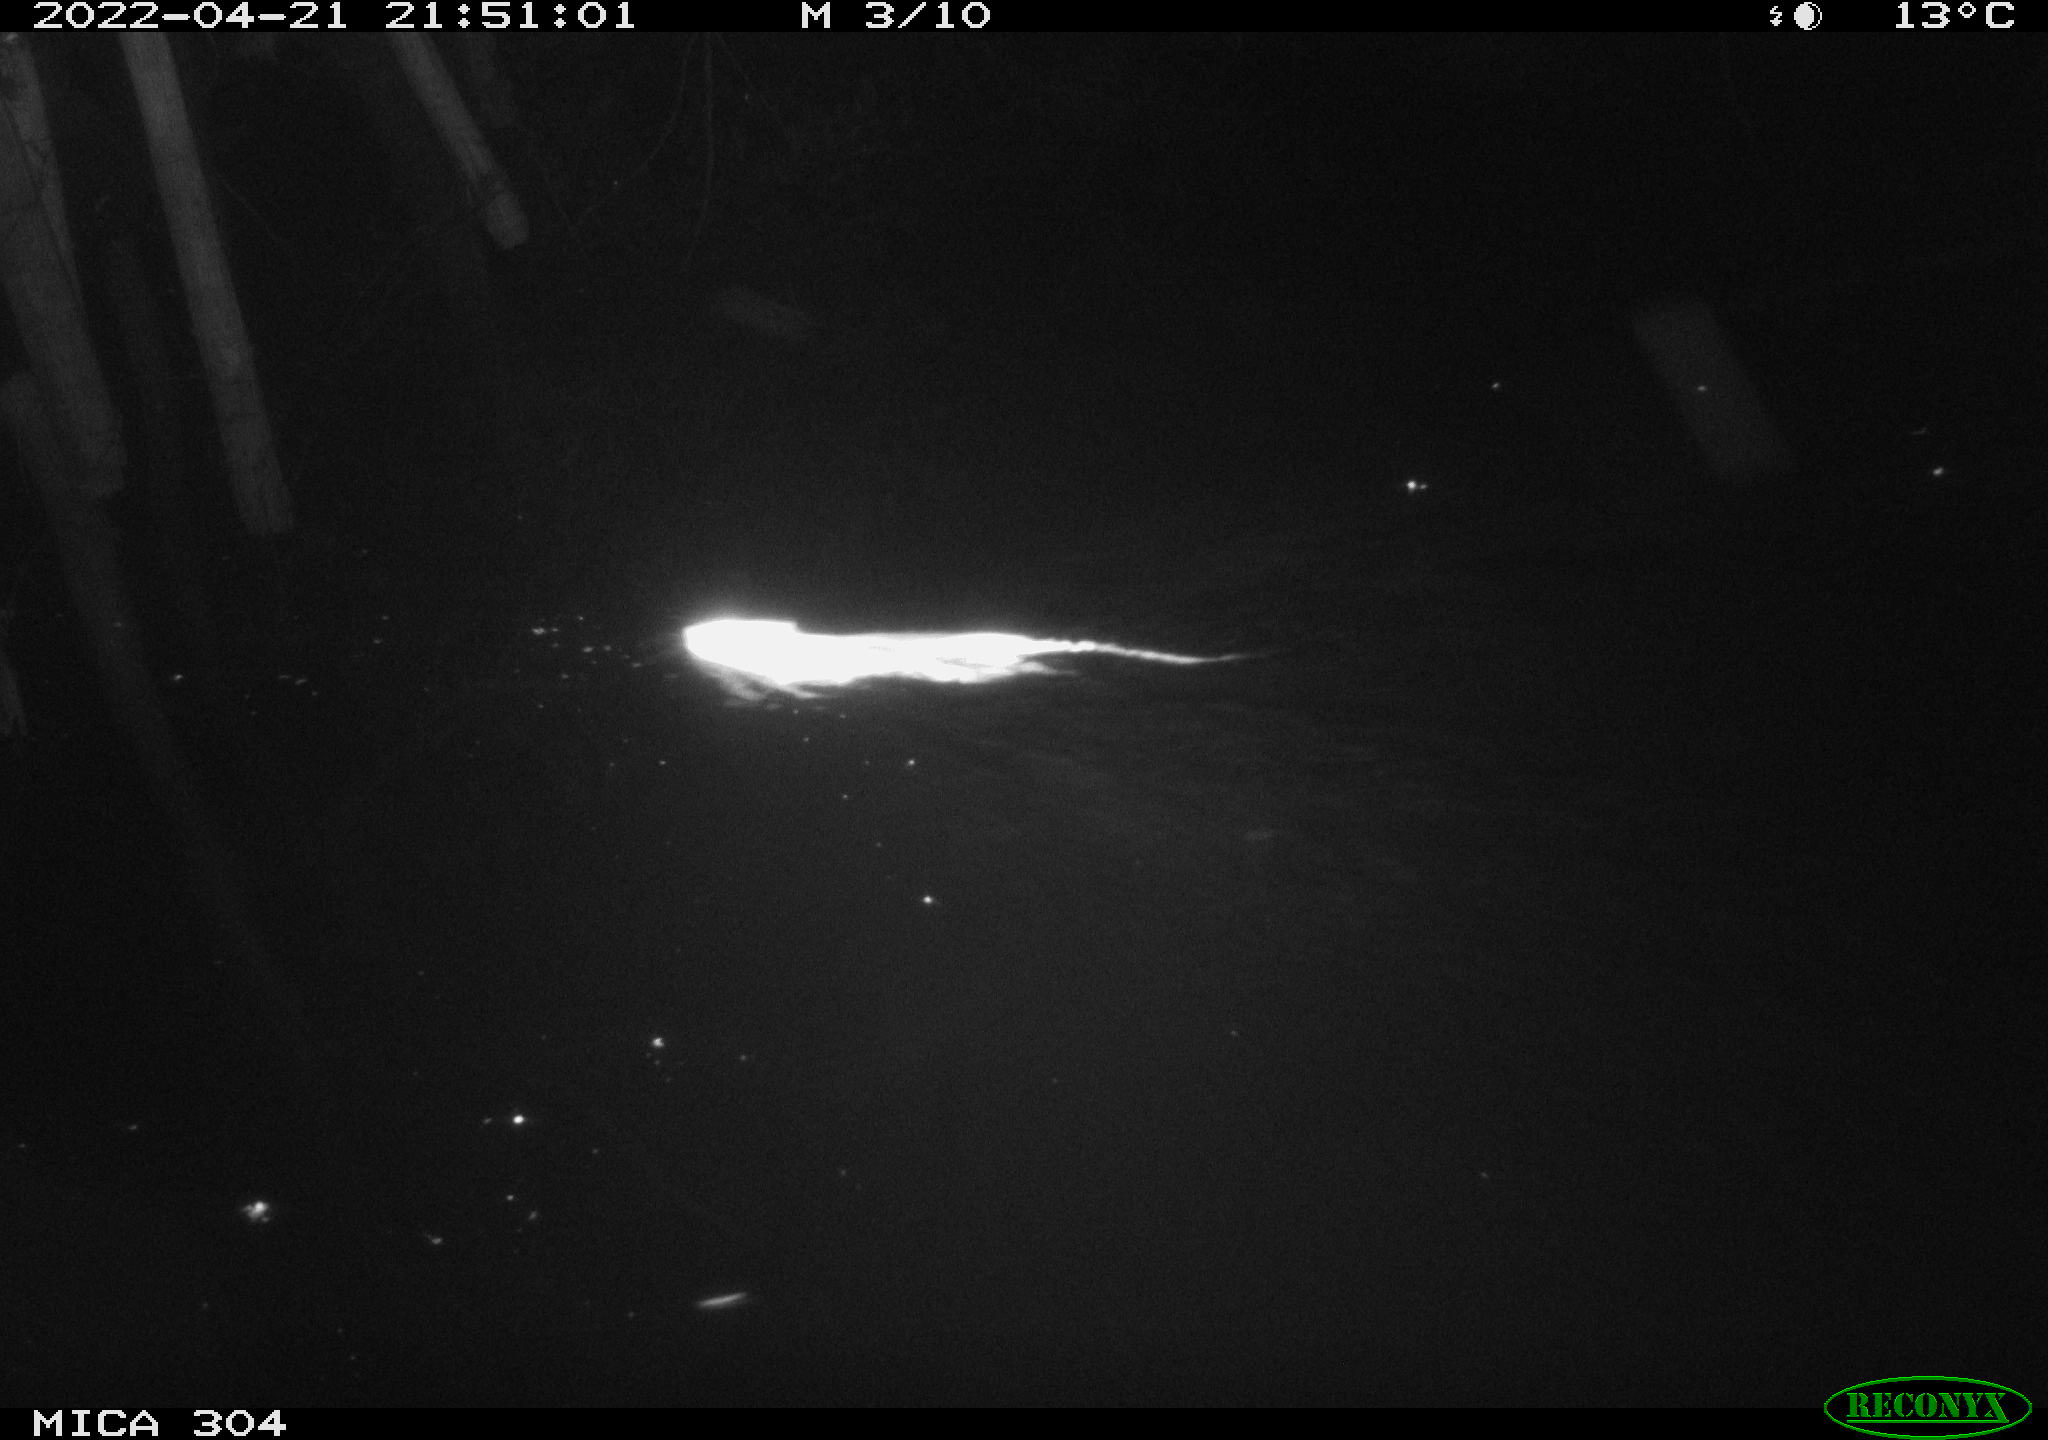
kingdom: Animalia
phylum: Chordata
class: Mammalia
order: Rodentia
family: Muridae
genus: Rattus
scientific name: Rattus norvegicus
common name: Brown rat
